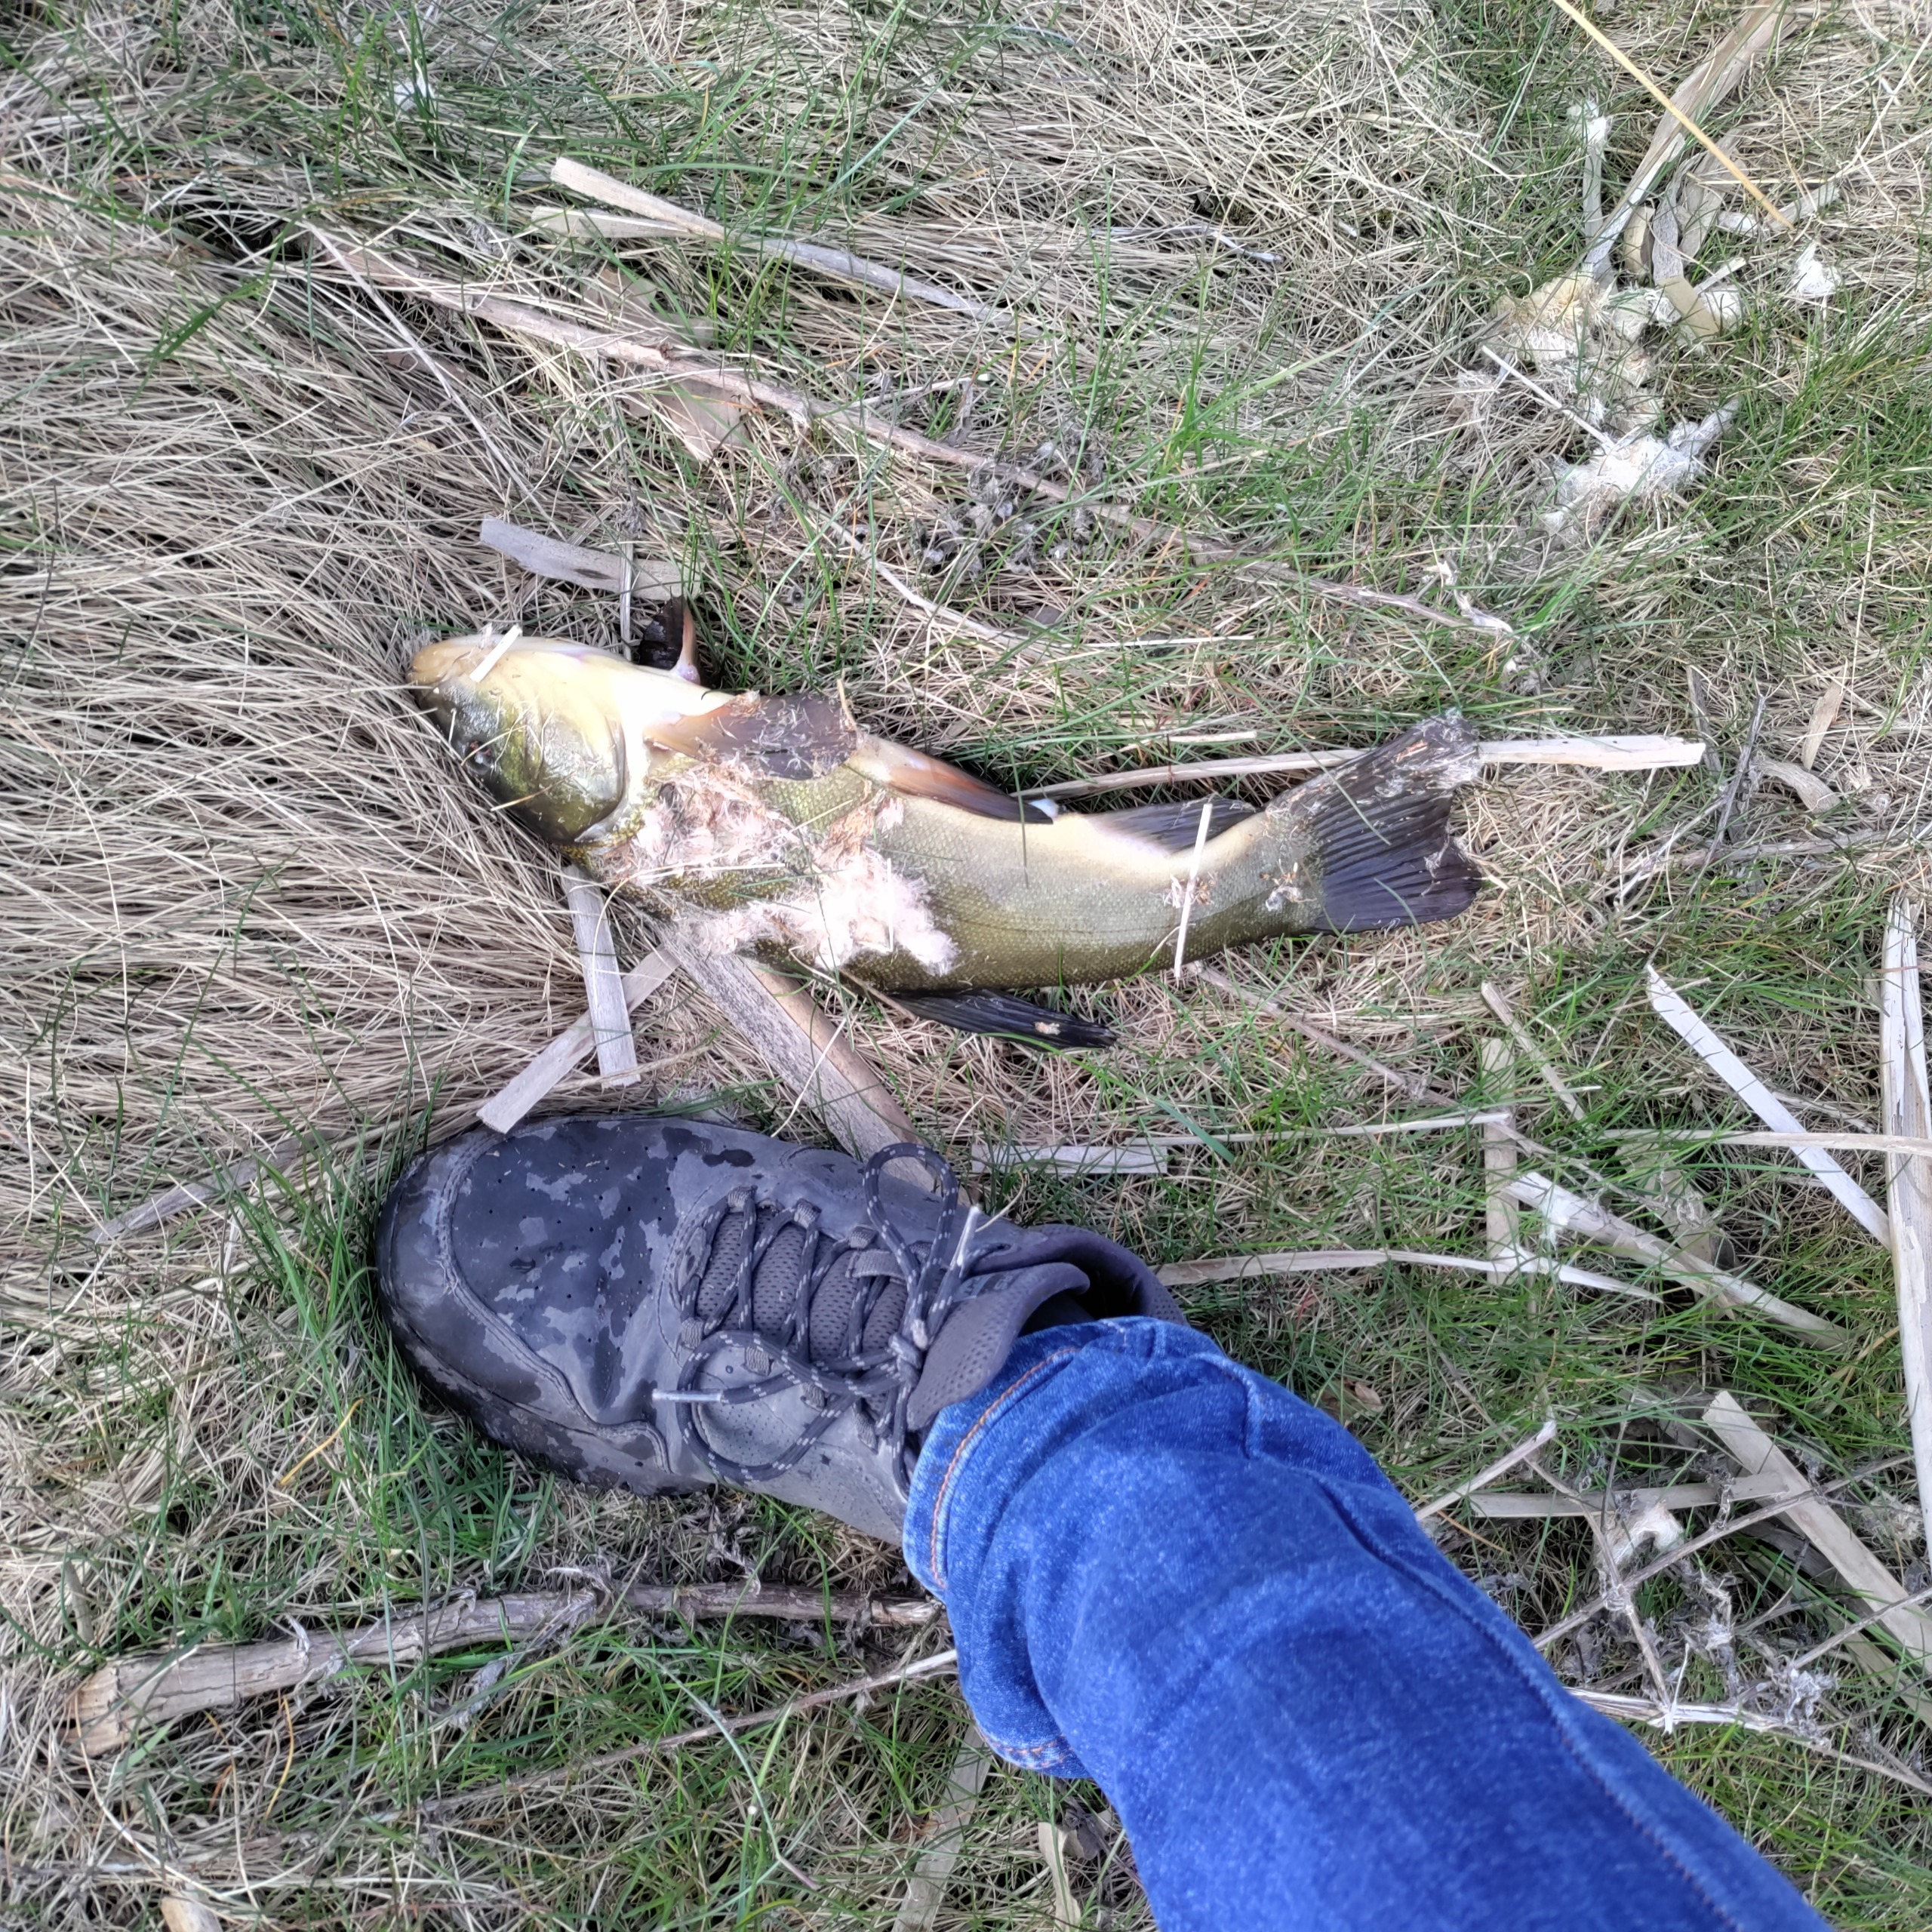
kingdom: Animalia
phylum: Chordata
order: Cypriniformes
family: Cyprinidae
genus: Tinca
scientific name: Tinca tinca
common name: Suder
